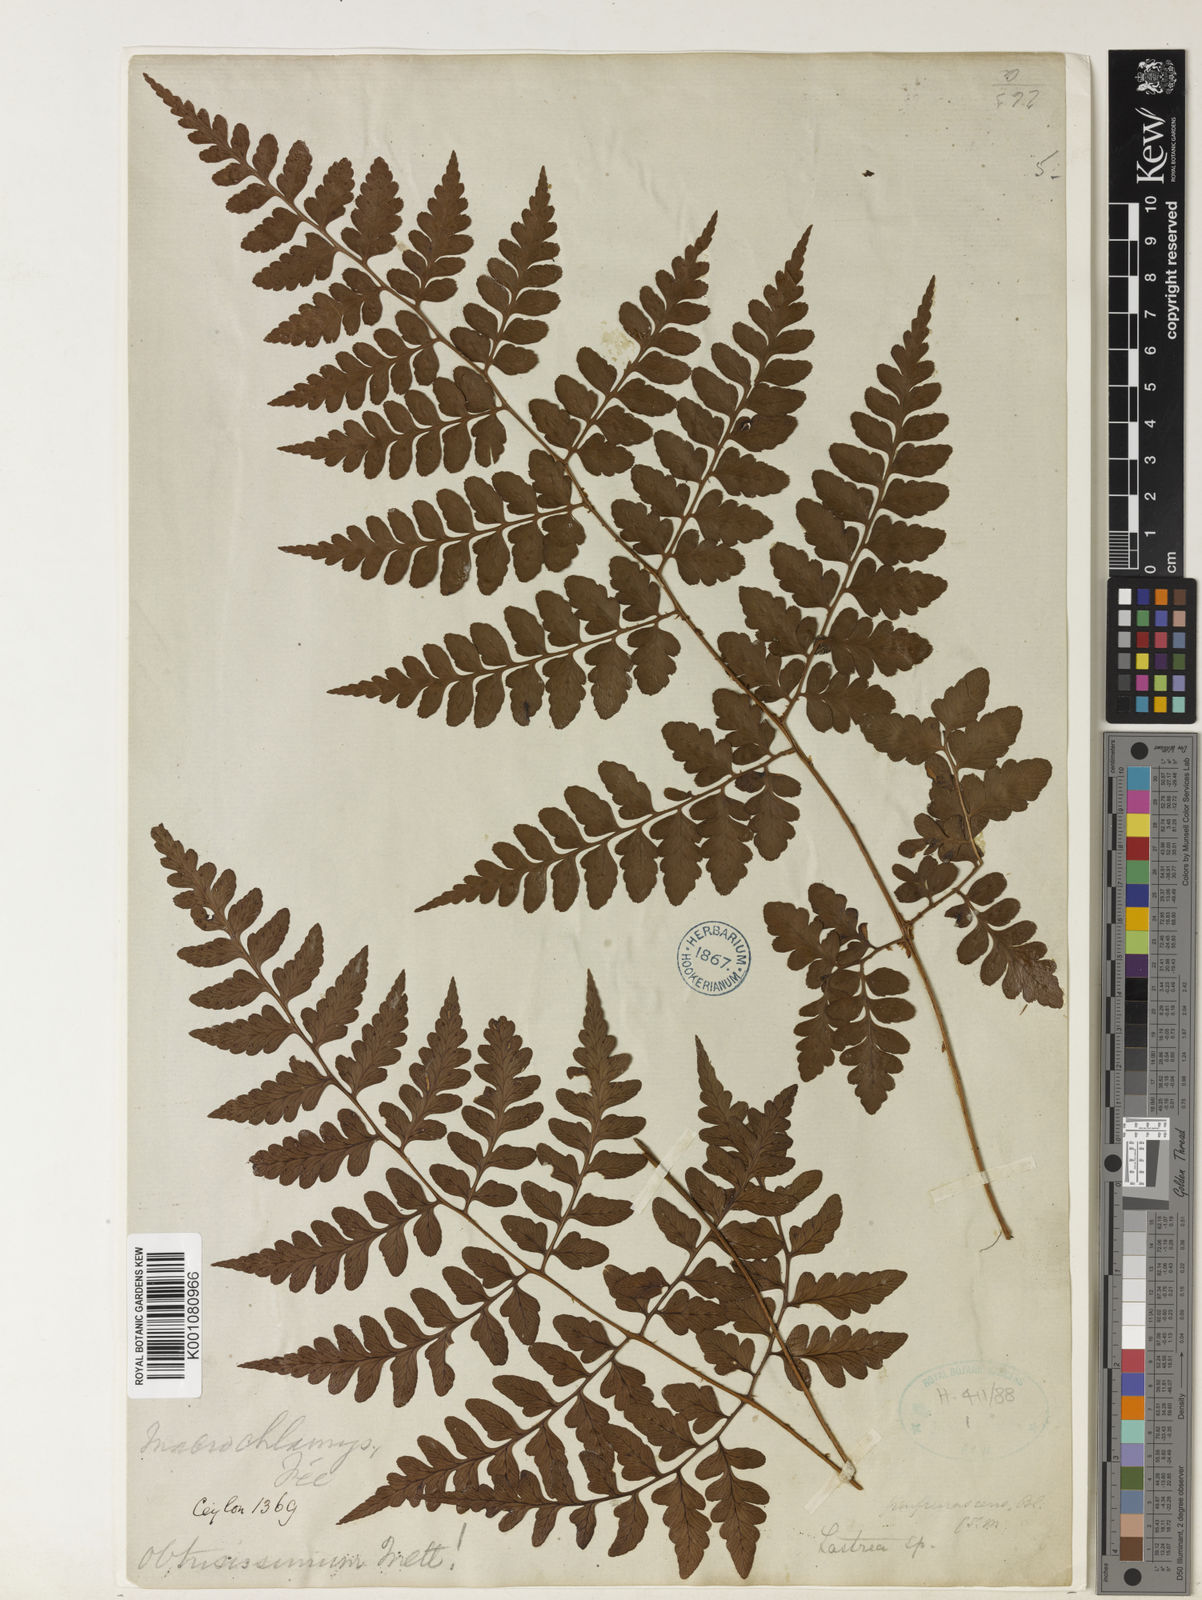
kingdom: Plantae
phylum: Tracheophyta
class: Polypodiopsida
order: Polypodiales
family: Dryopteridaceae
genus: Dryopteris
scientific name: Dryopteris
